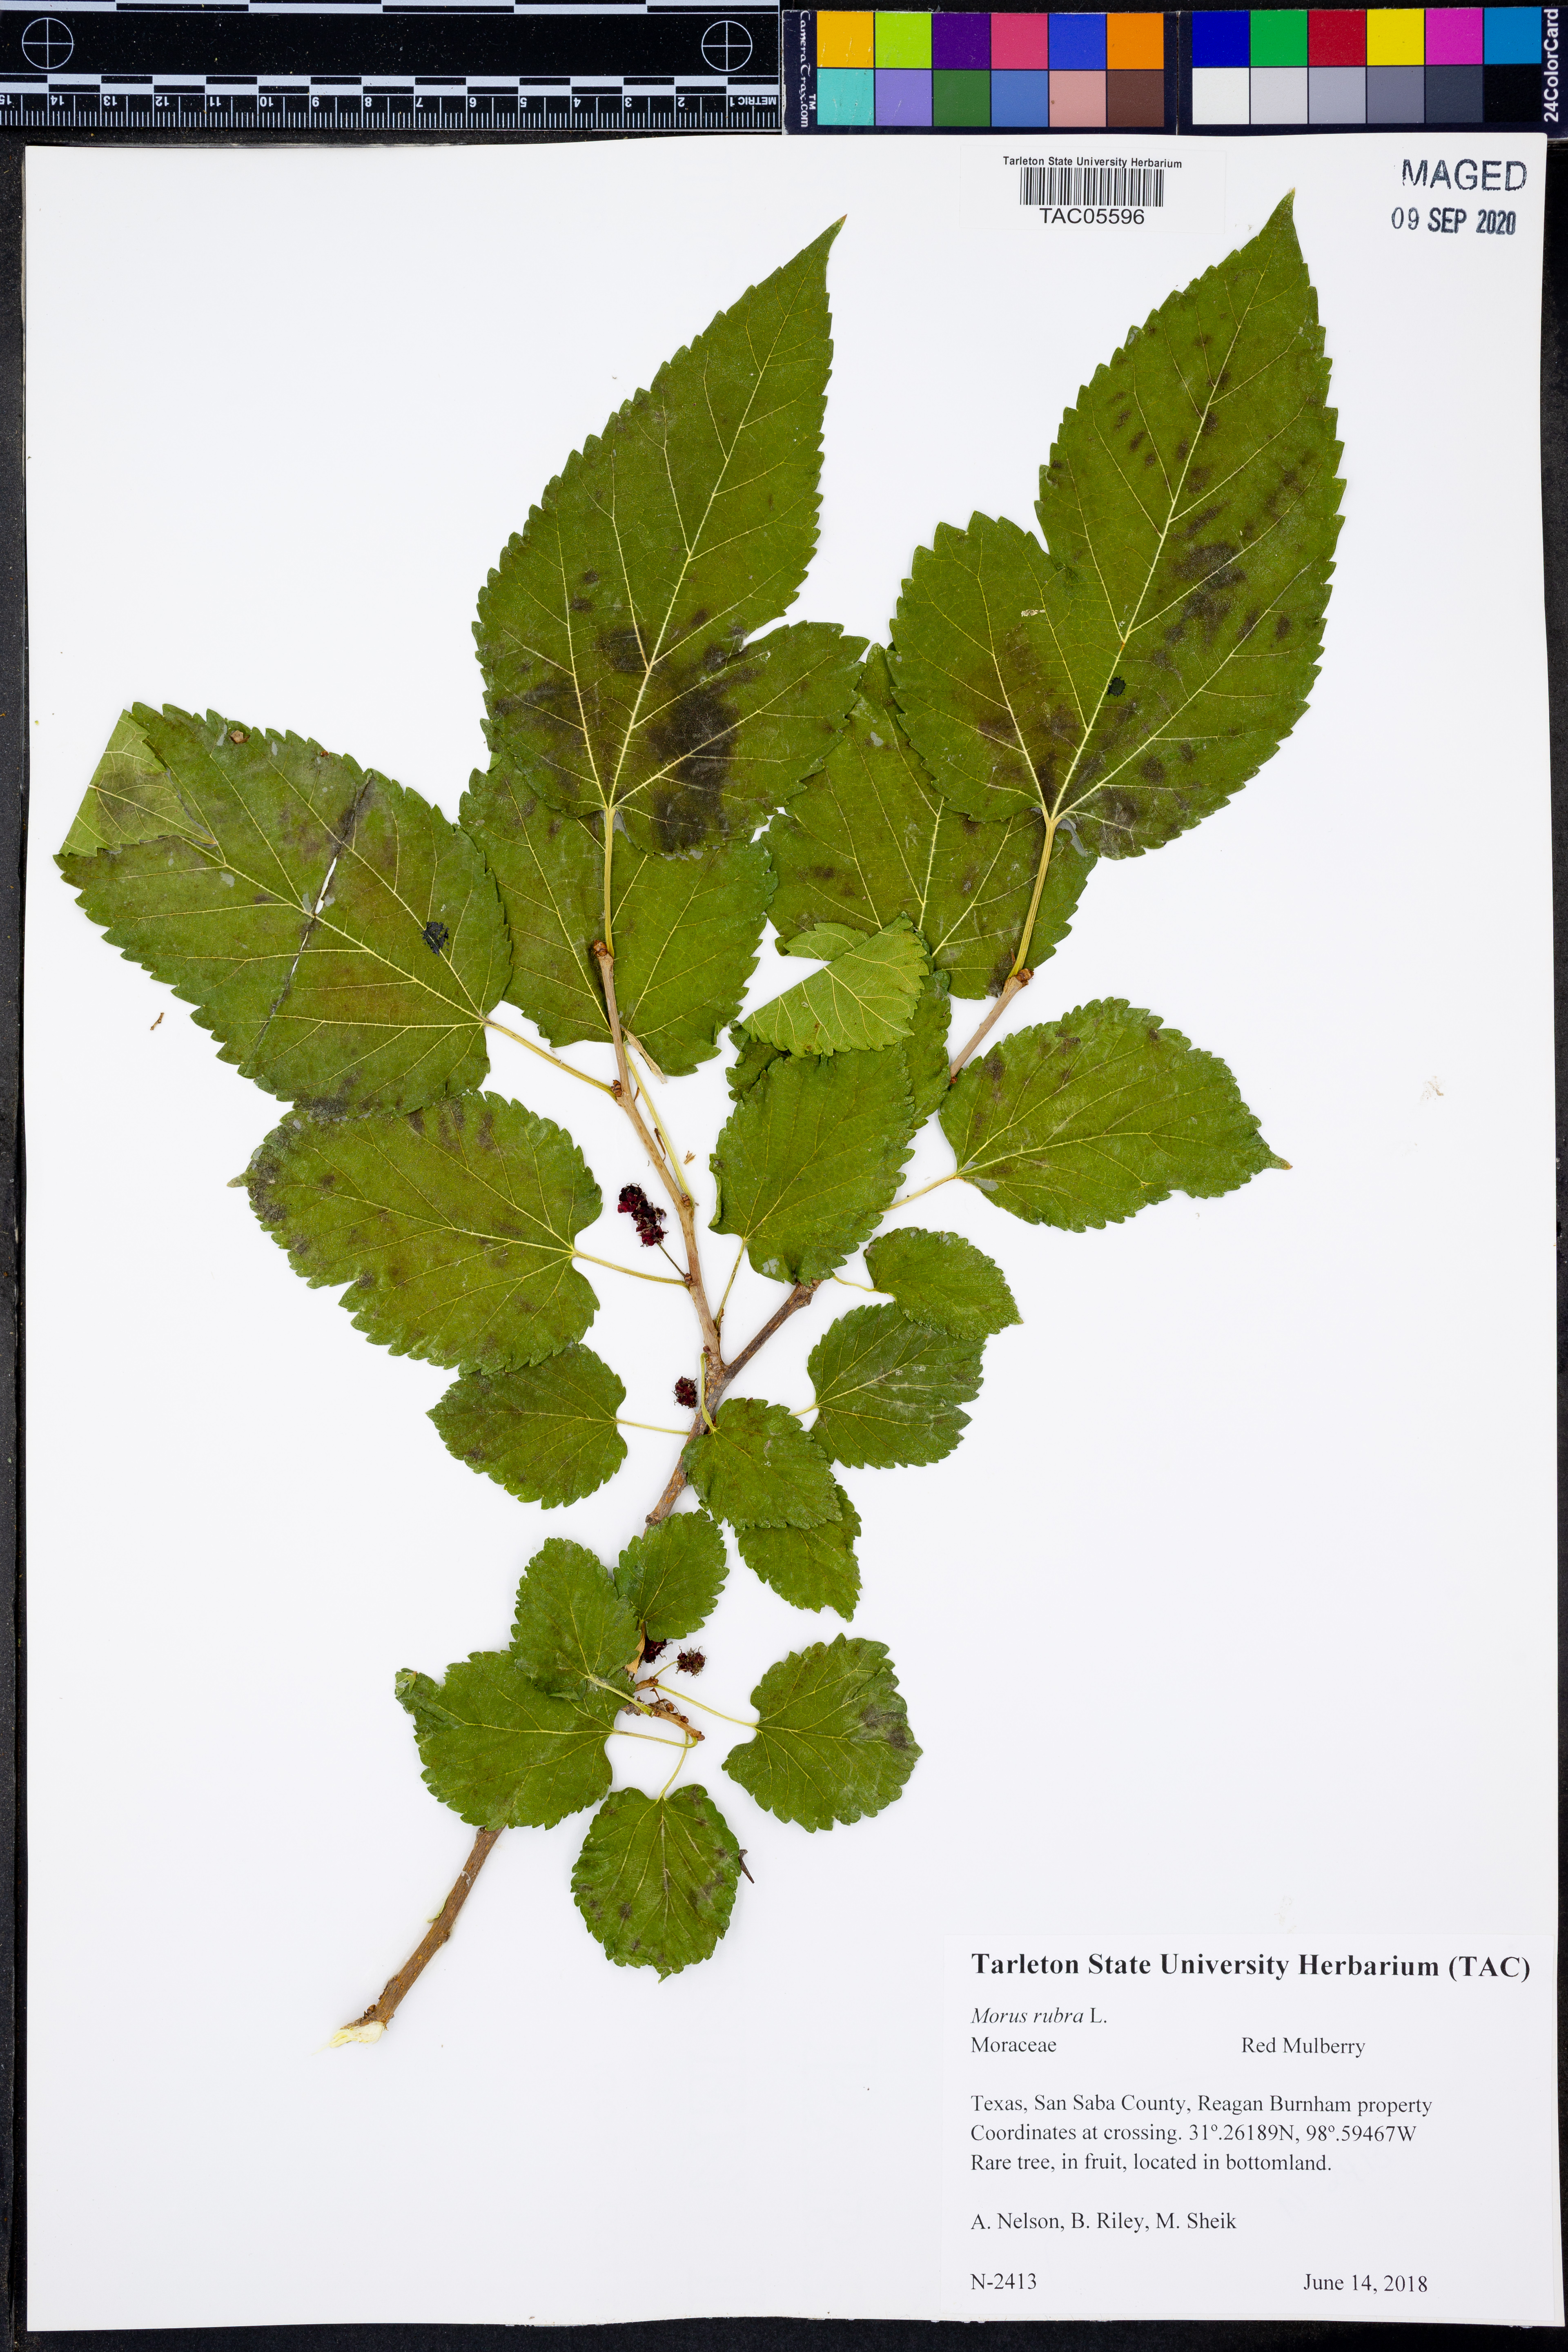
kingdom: Plantae
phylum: Tracheophyta
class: Magnoliopsida
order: Rosales
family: Moraceae
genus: Morus
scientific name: Morus rubra
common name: Red mulberry
